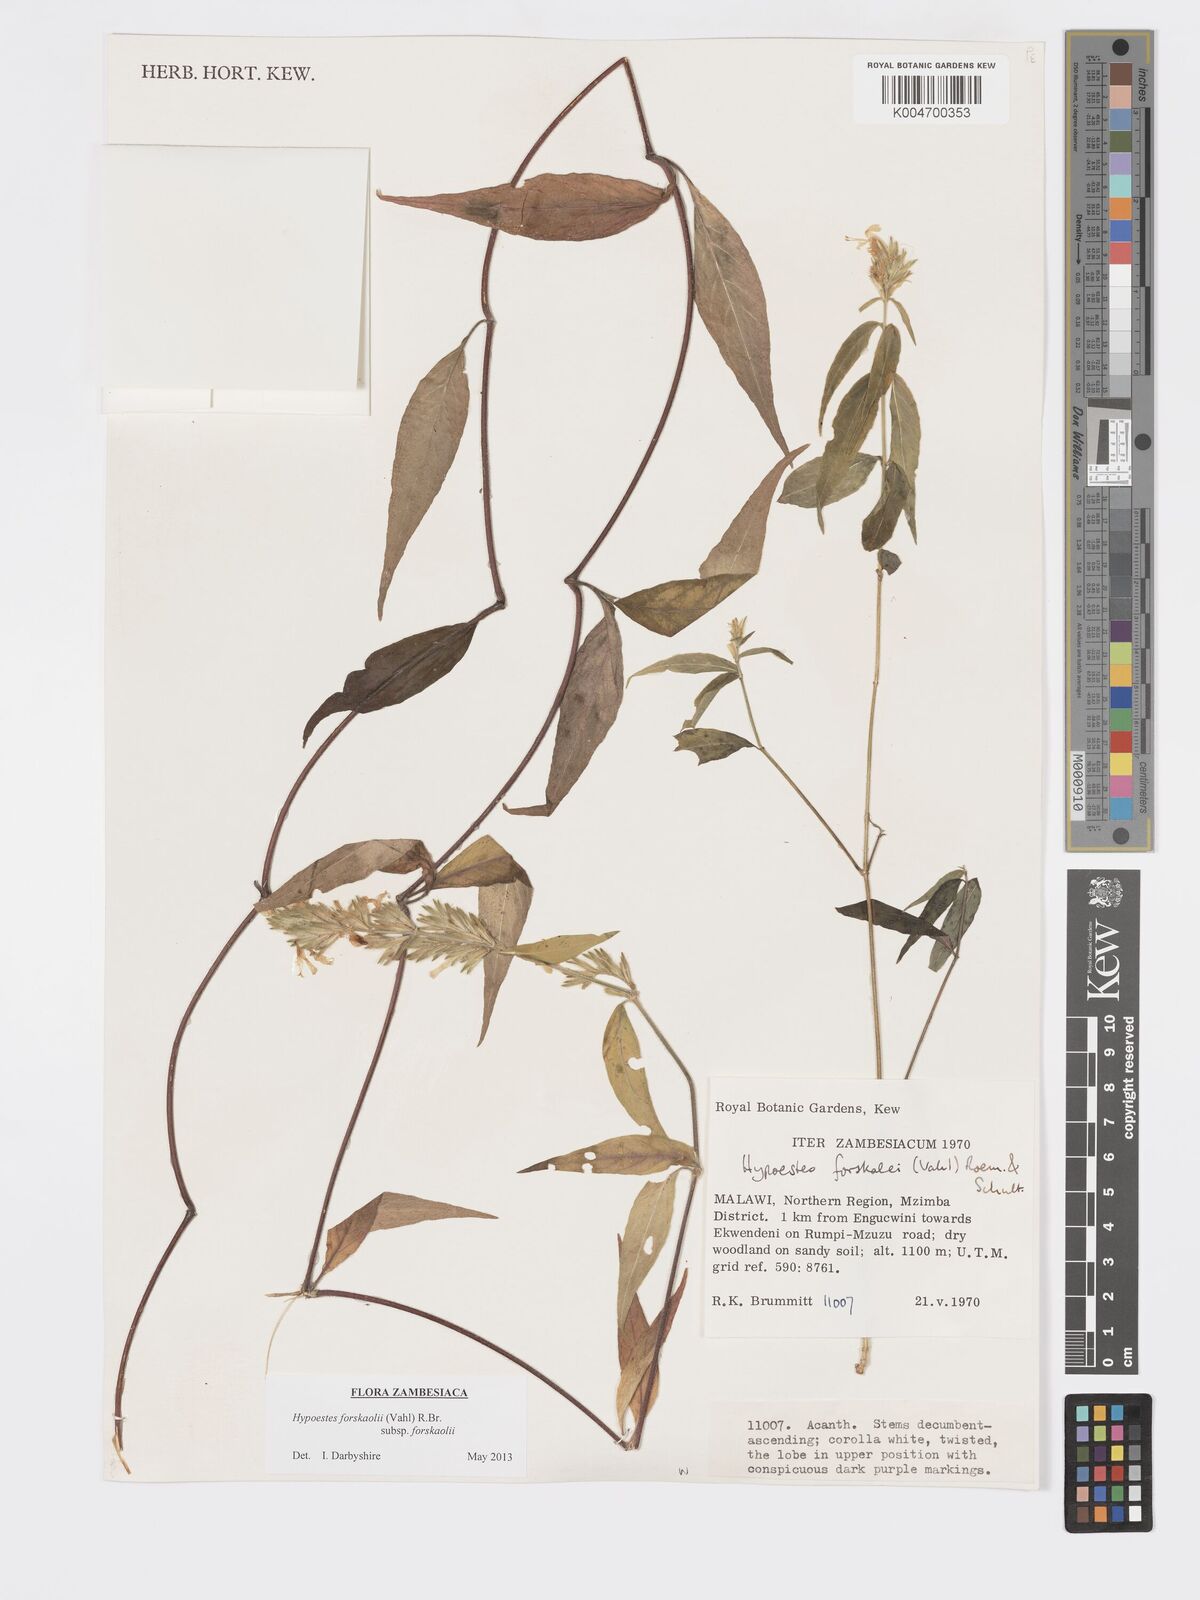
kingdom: Plantae
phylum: Tracheophyta
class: Magnoliopsida
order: Lamiales
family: Acanthaceae
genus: Hypoestes
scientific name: Hypoestes forskaolii
